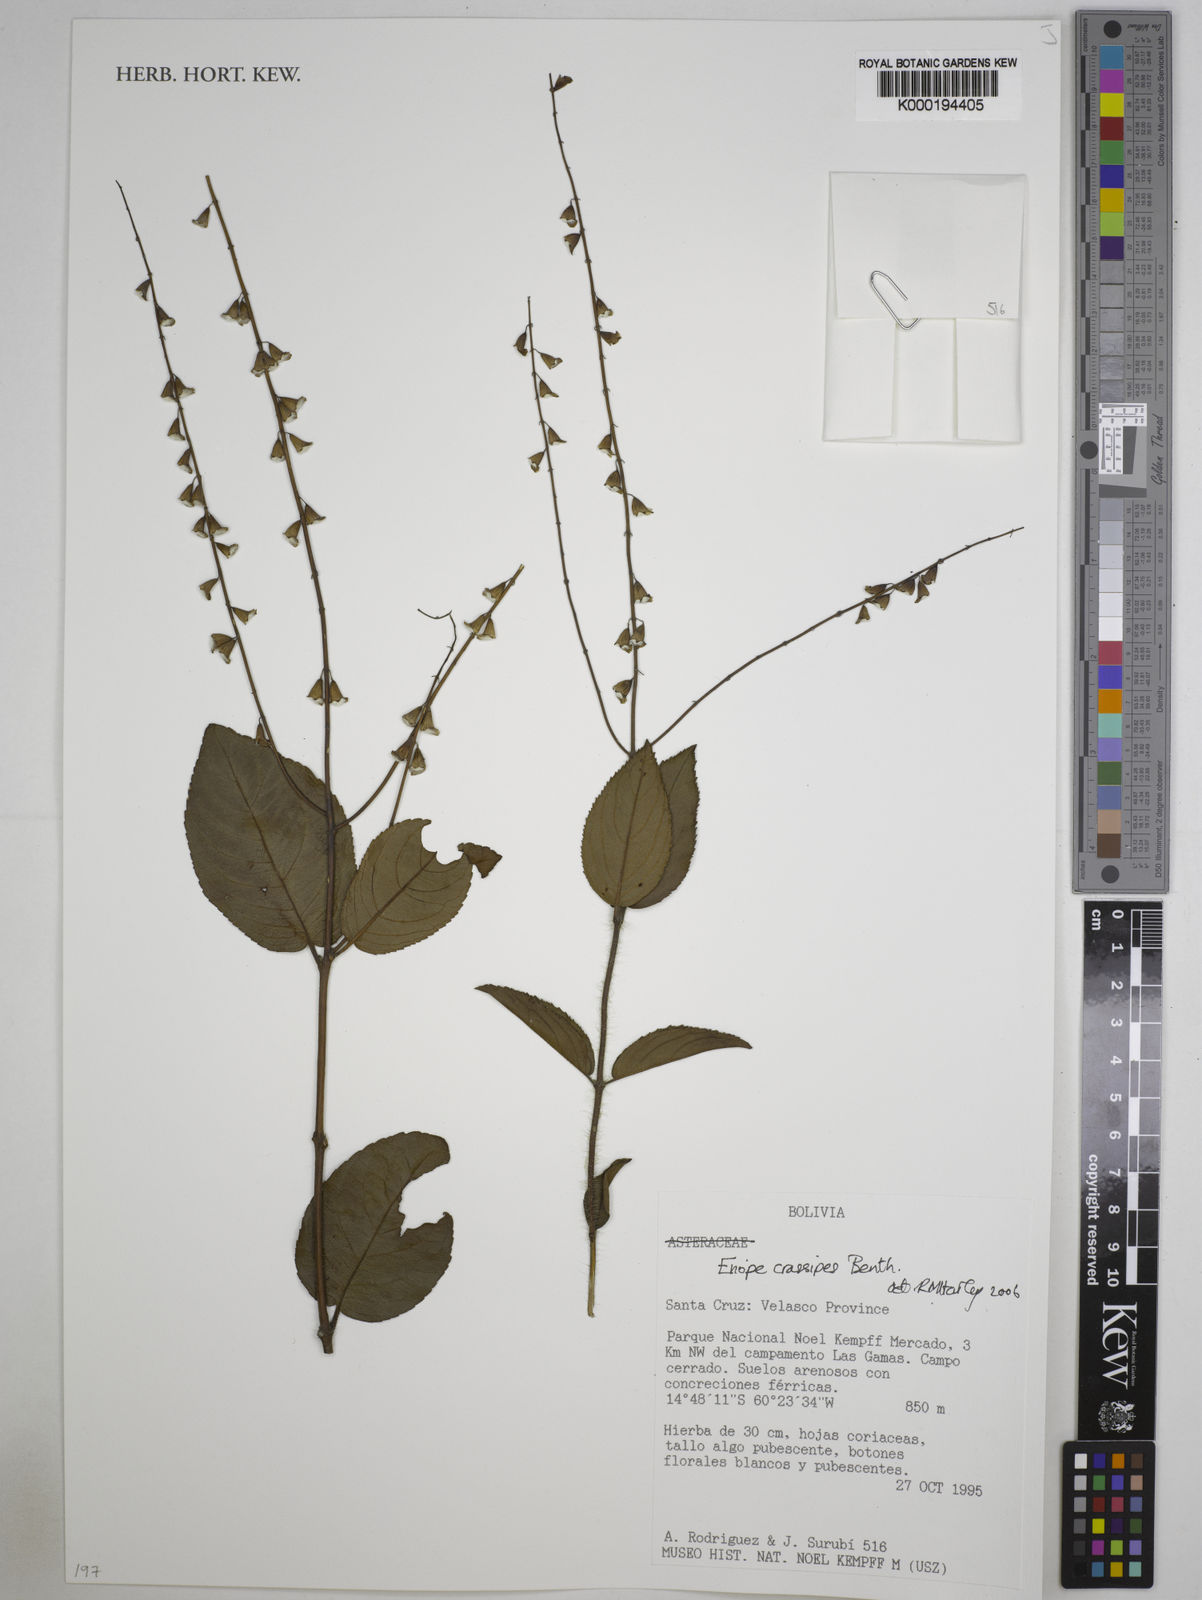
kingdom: Plantae
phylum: Tracheophyta
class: Magnoliopsida
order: Lamiales
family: Lamiaceae
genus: Eriope
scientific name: Eriope crassipes
